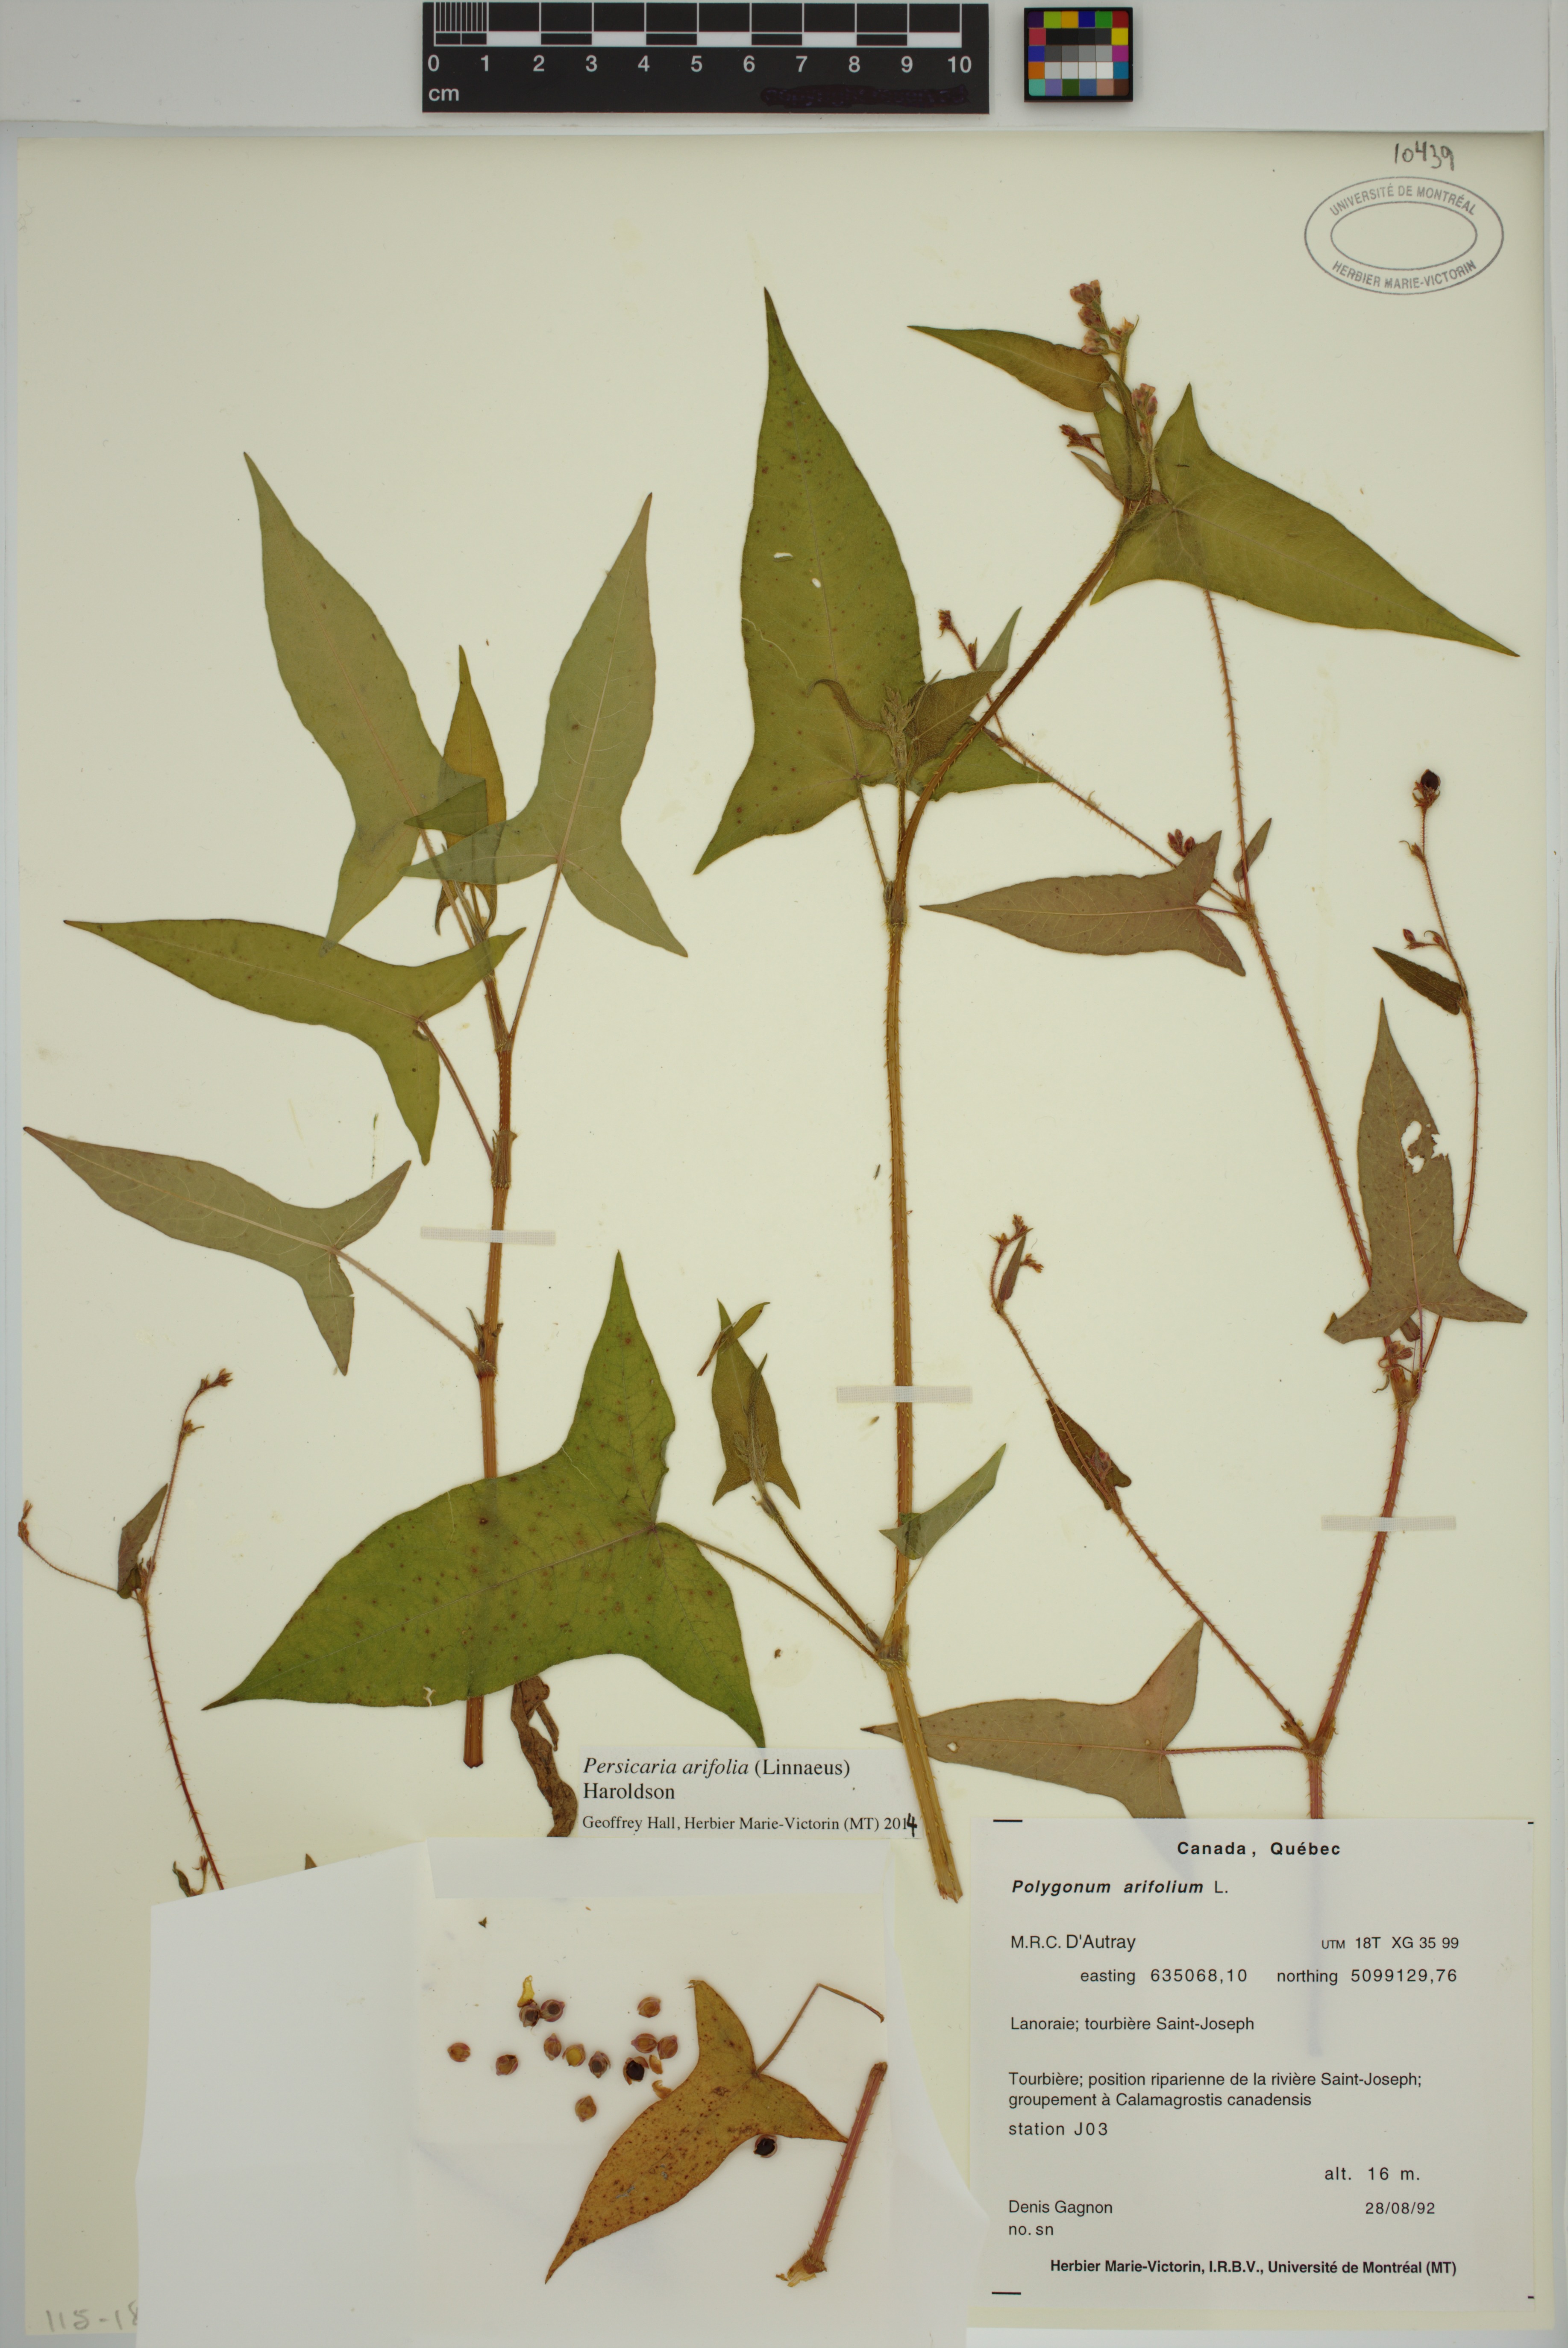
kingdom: Plantae
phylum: Tracheophyta
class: Magnoliopsida
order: Caryophyllales
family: Polygonaceae
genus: Persicaria
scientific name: Persicaria arifolia
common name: Halberd-leaved tear-thumb
